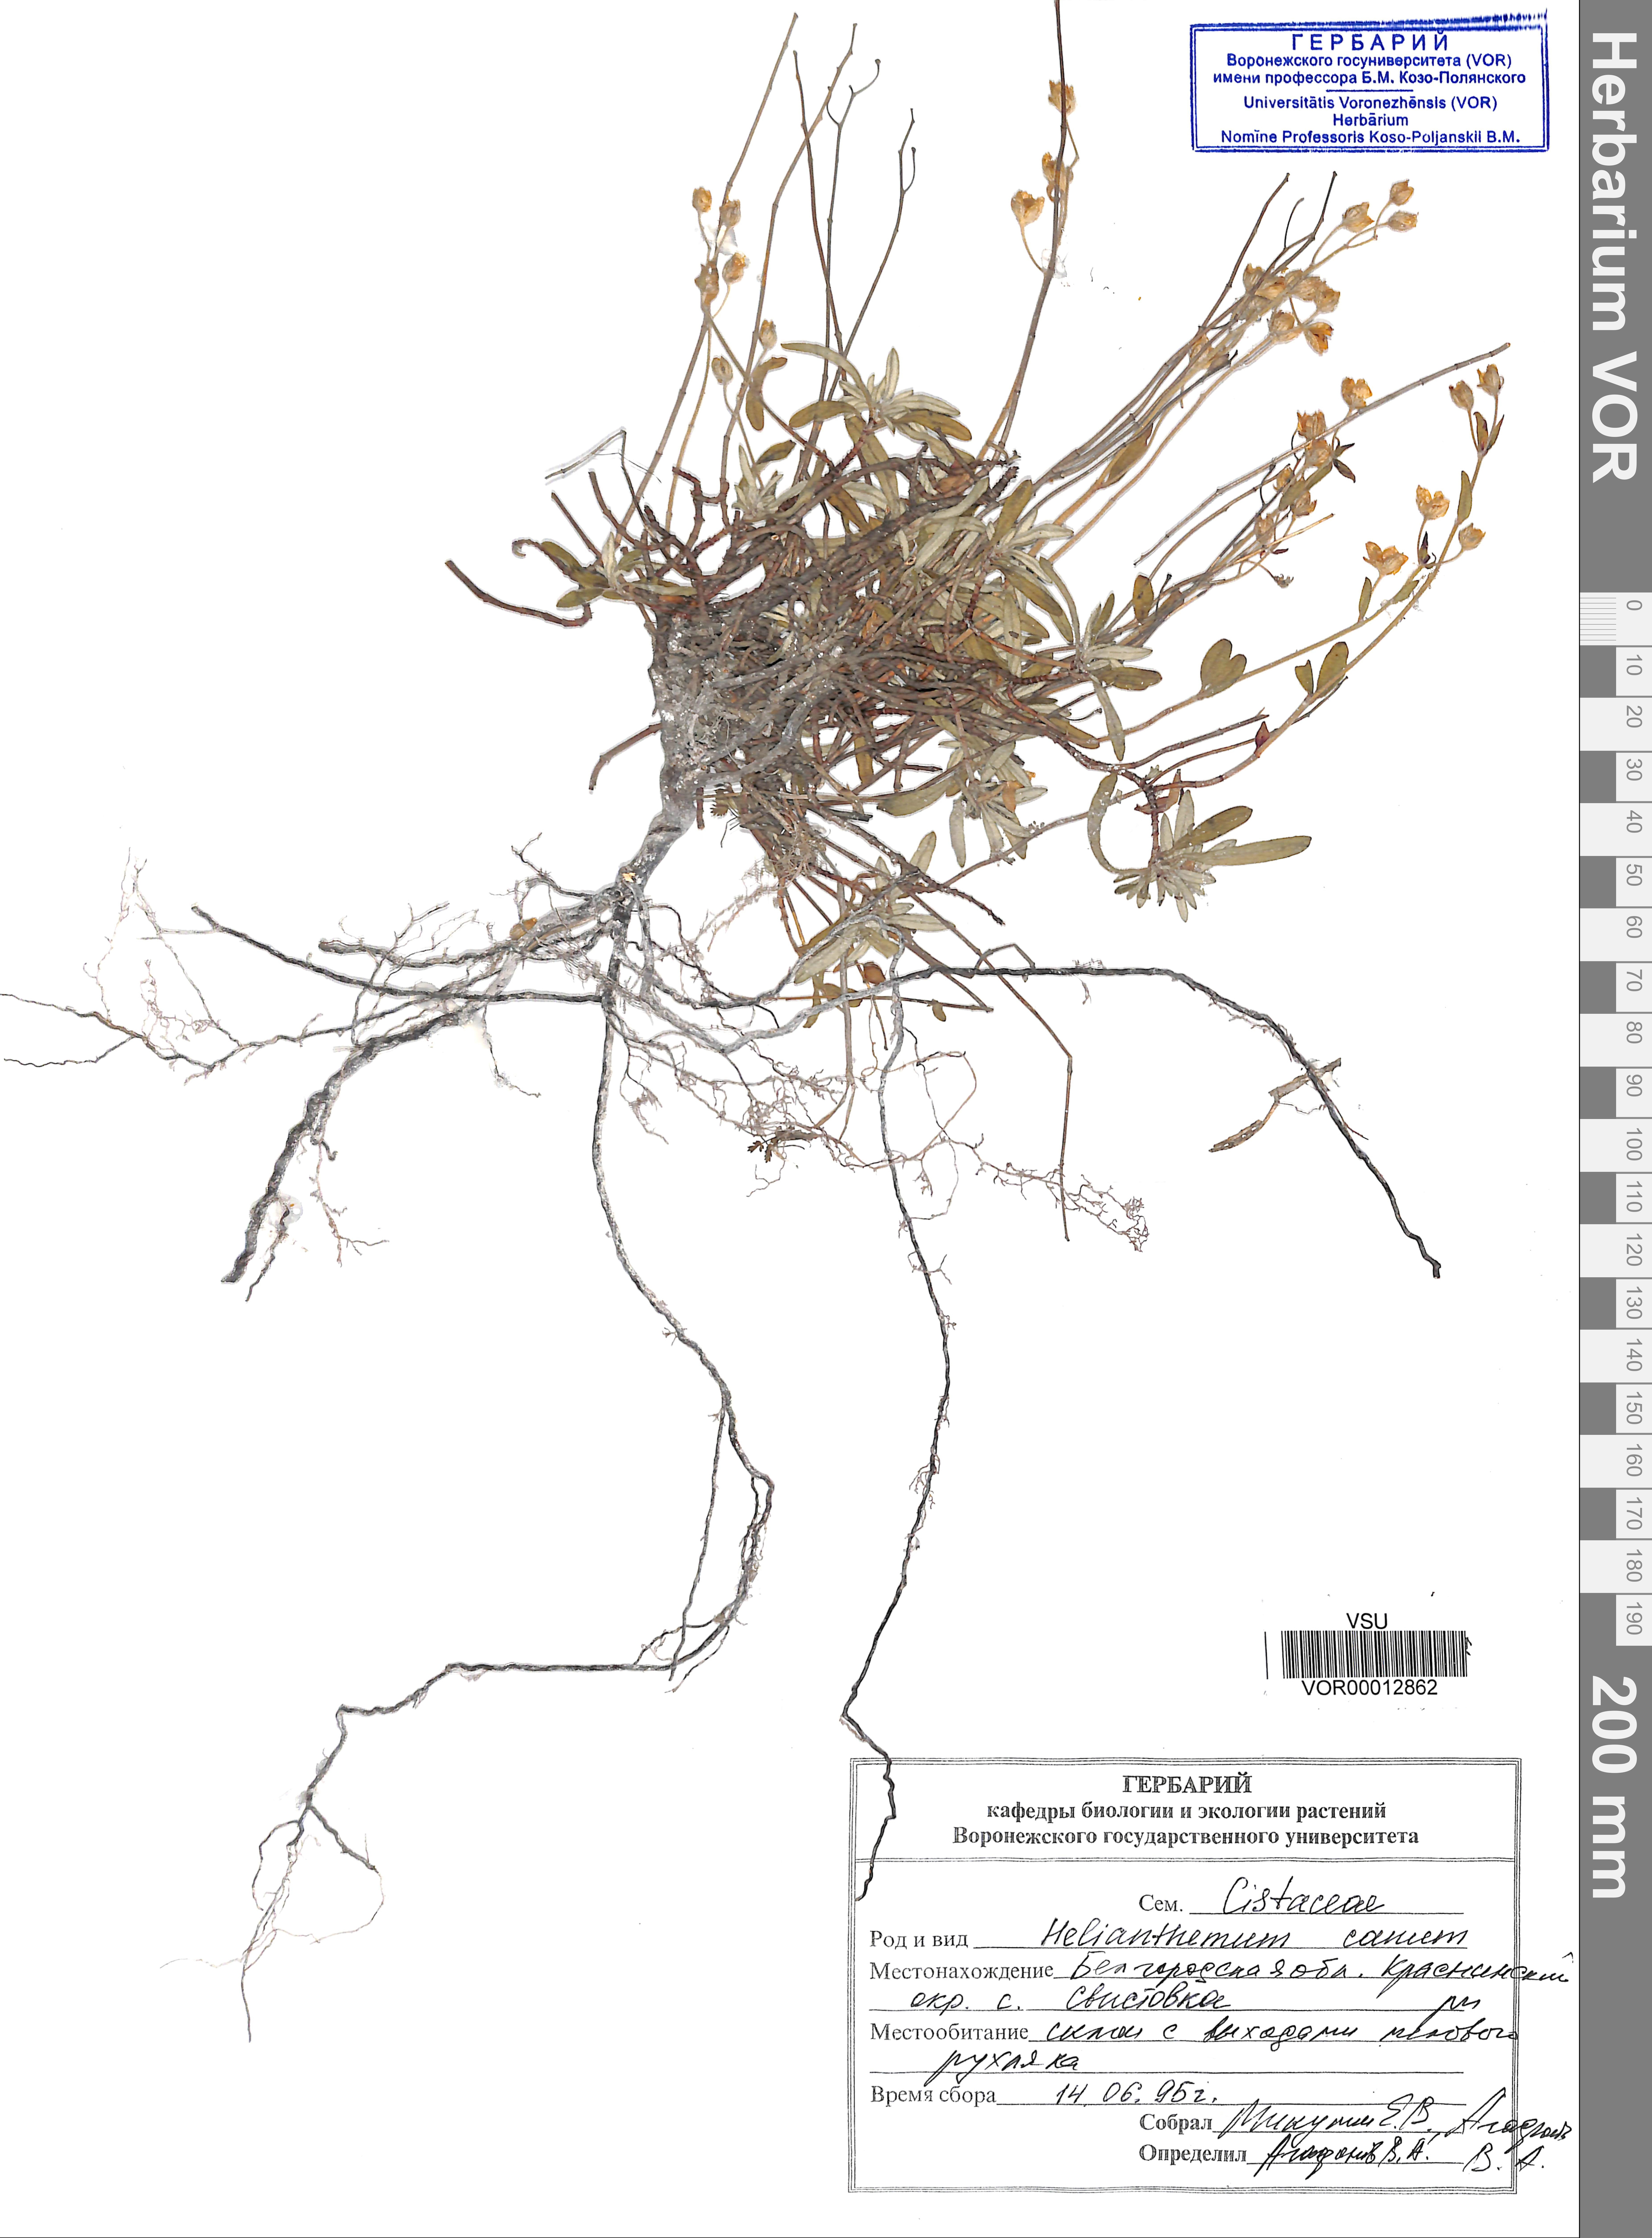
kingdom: Plantae
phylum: Tracheophyta
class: Magnoliopsida
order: Malvales
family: Cistaceae
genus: Helianthemum
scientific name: Helianthemum canum
